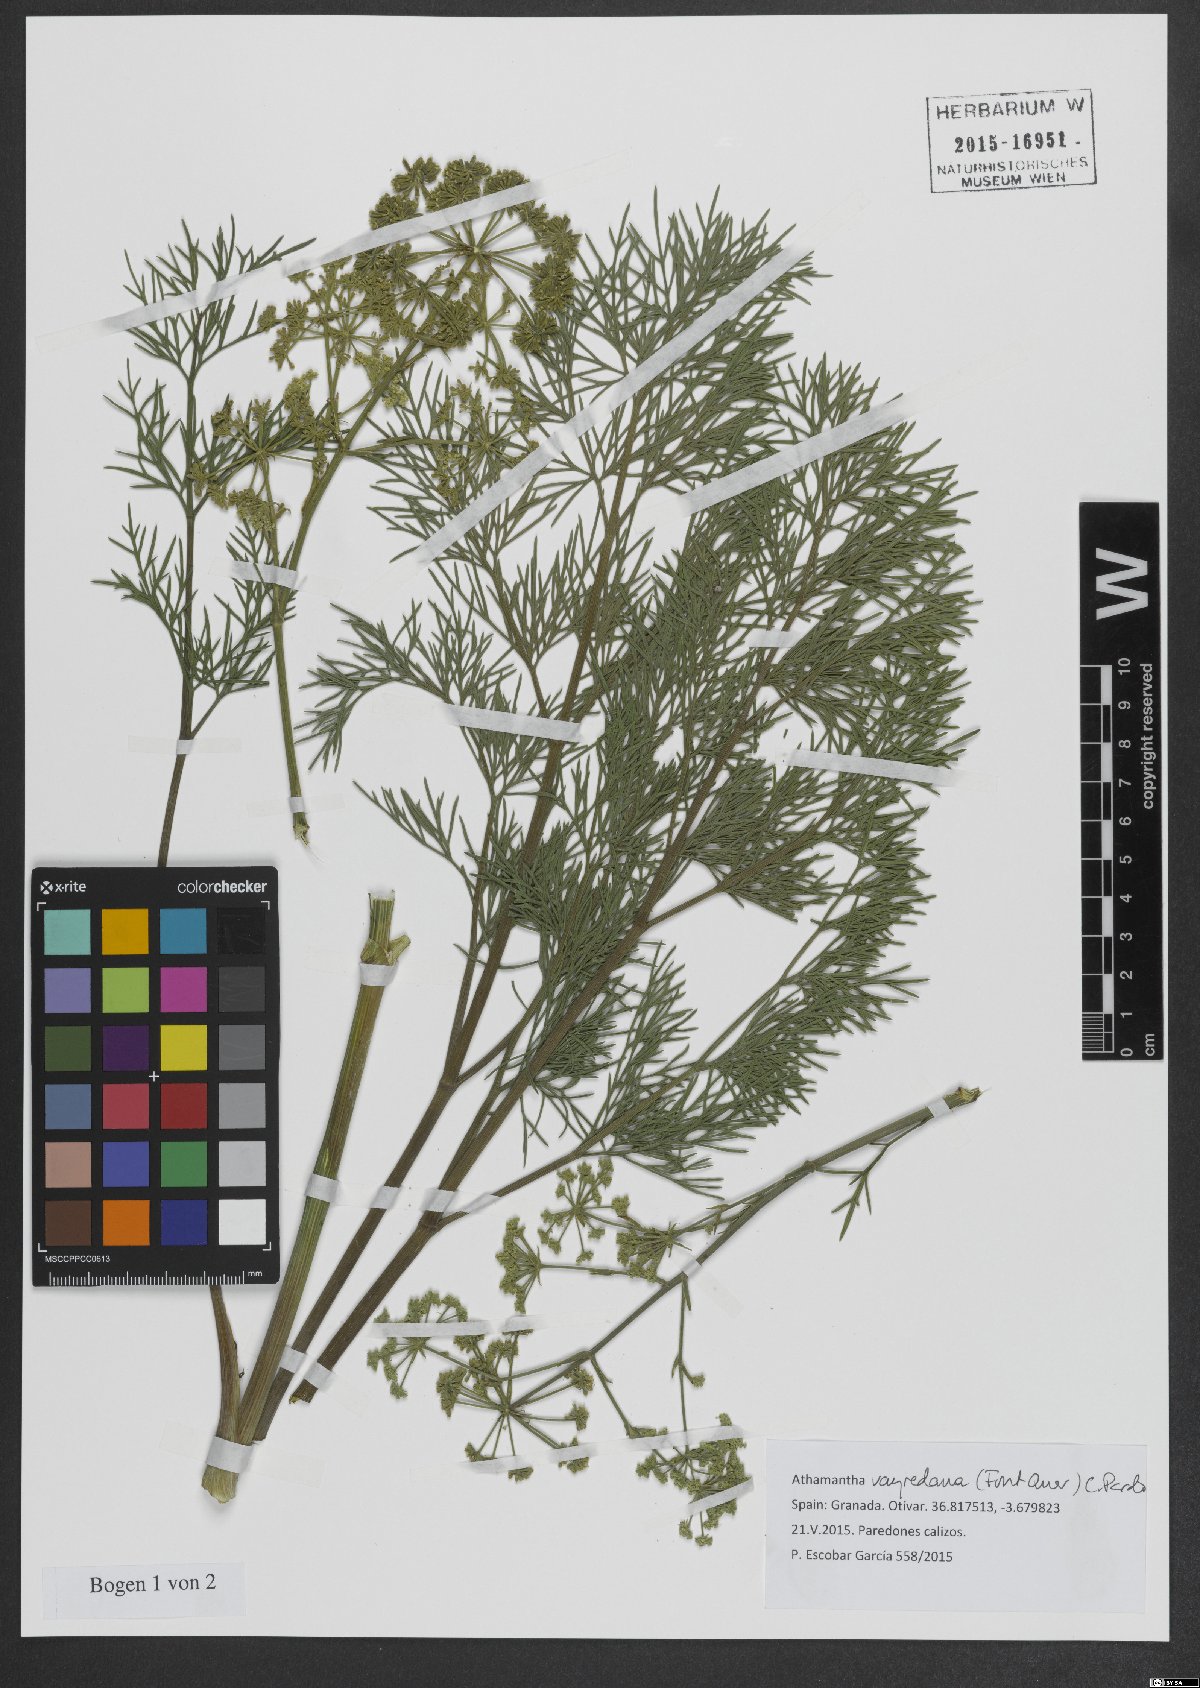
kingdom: Plantae
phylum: Tracheophyta
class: Magnoliopsida
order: Apiales
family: Apiaceae
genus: Athamanta
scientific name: Athamanta vayredana
